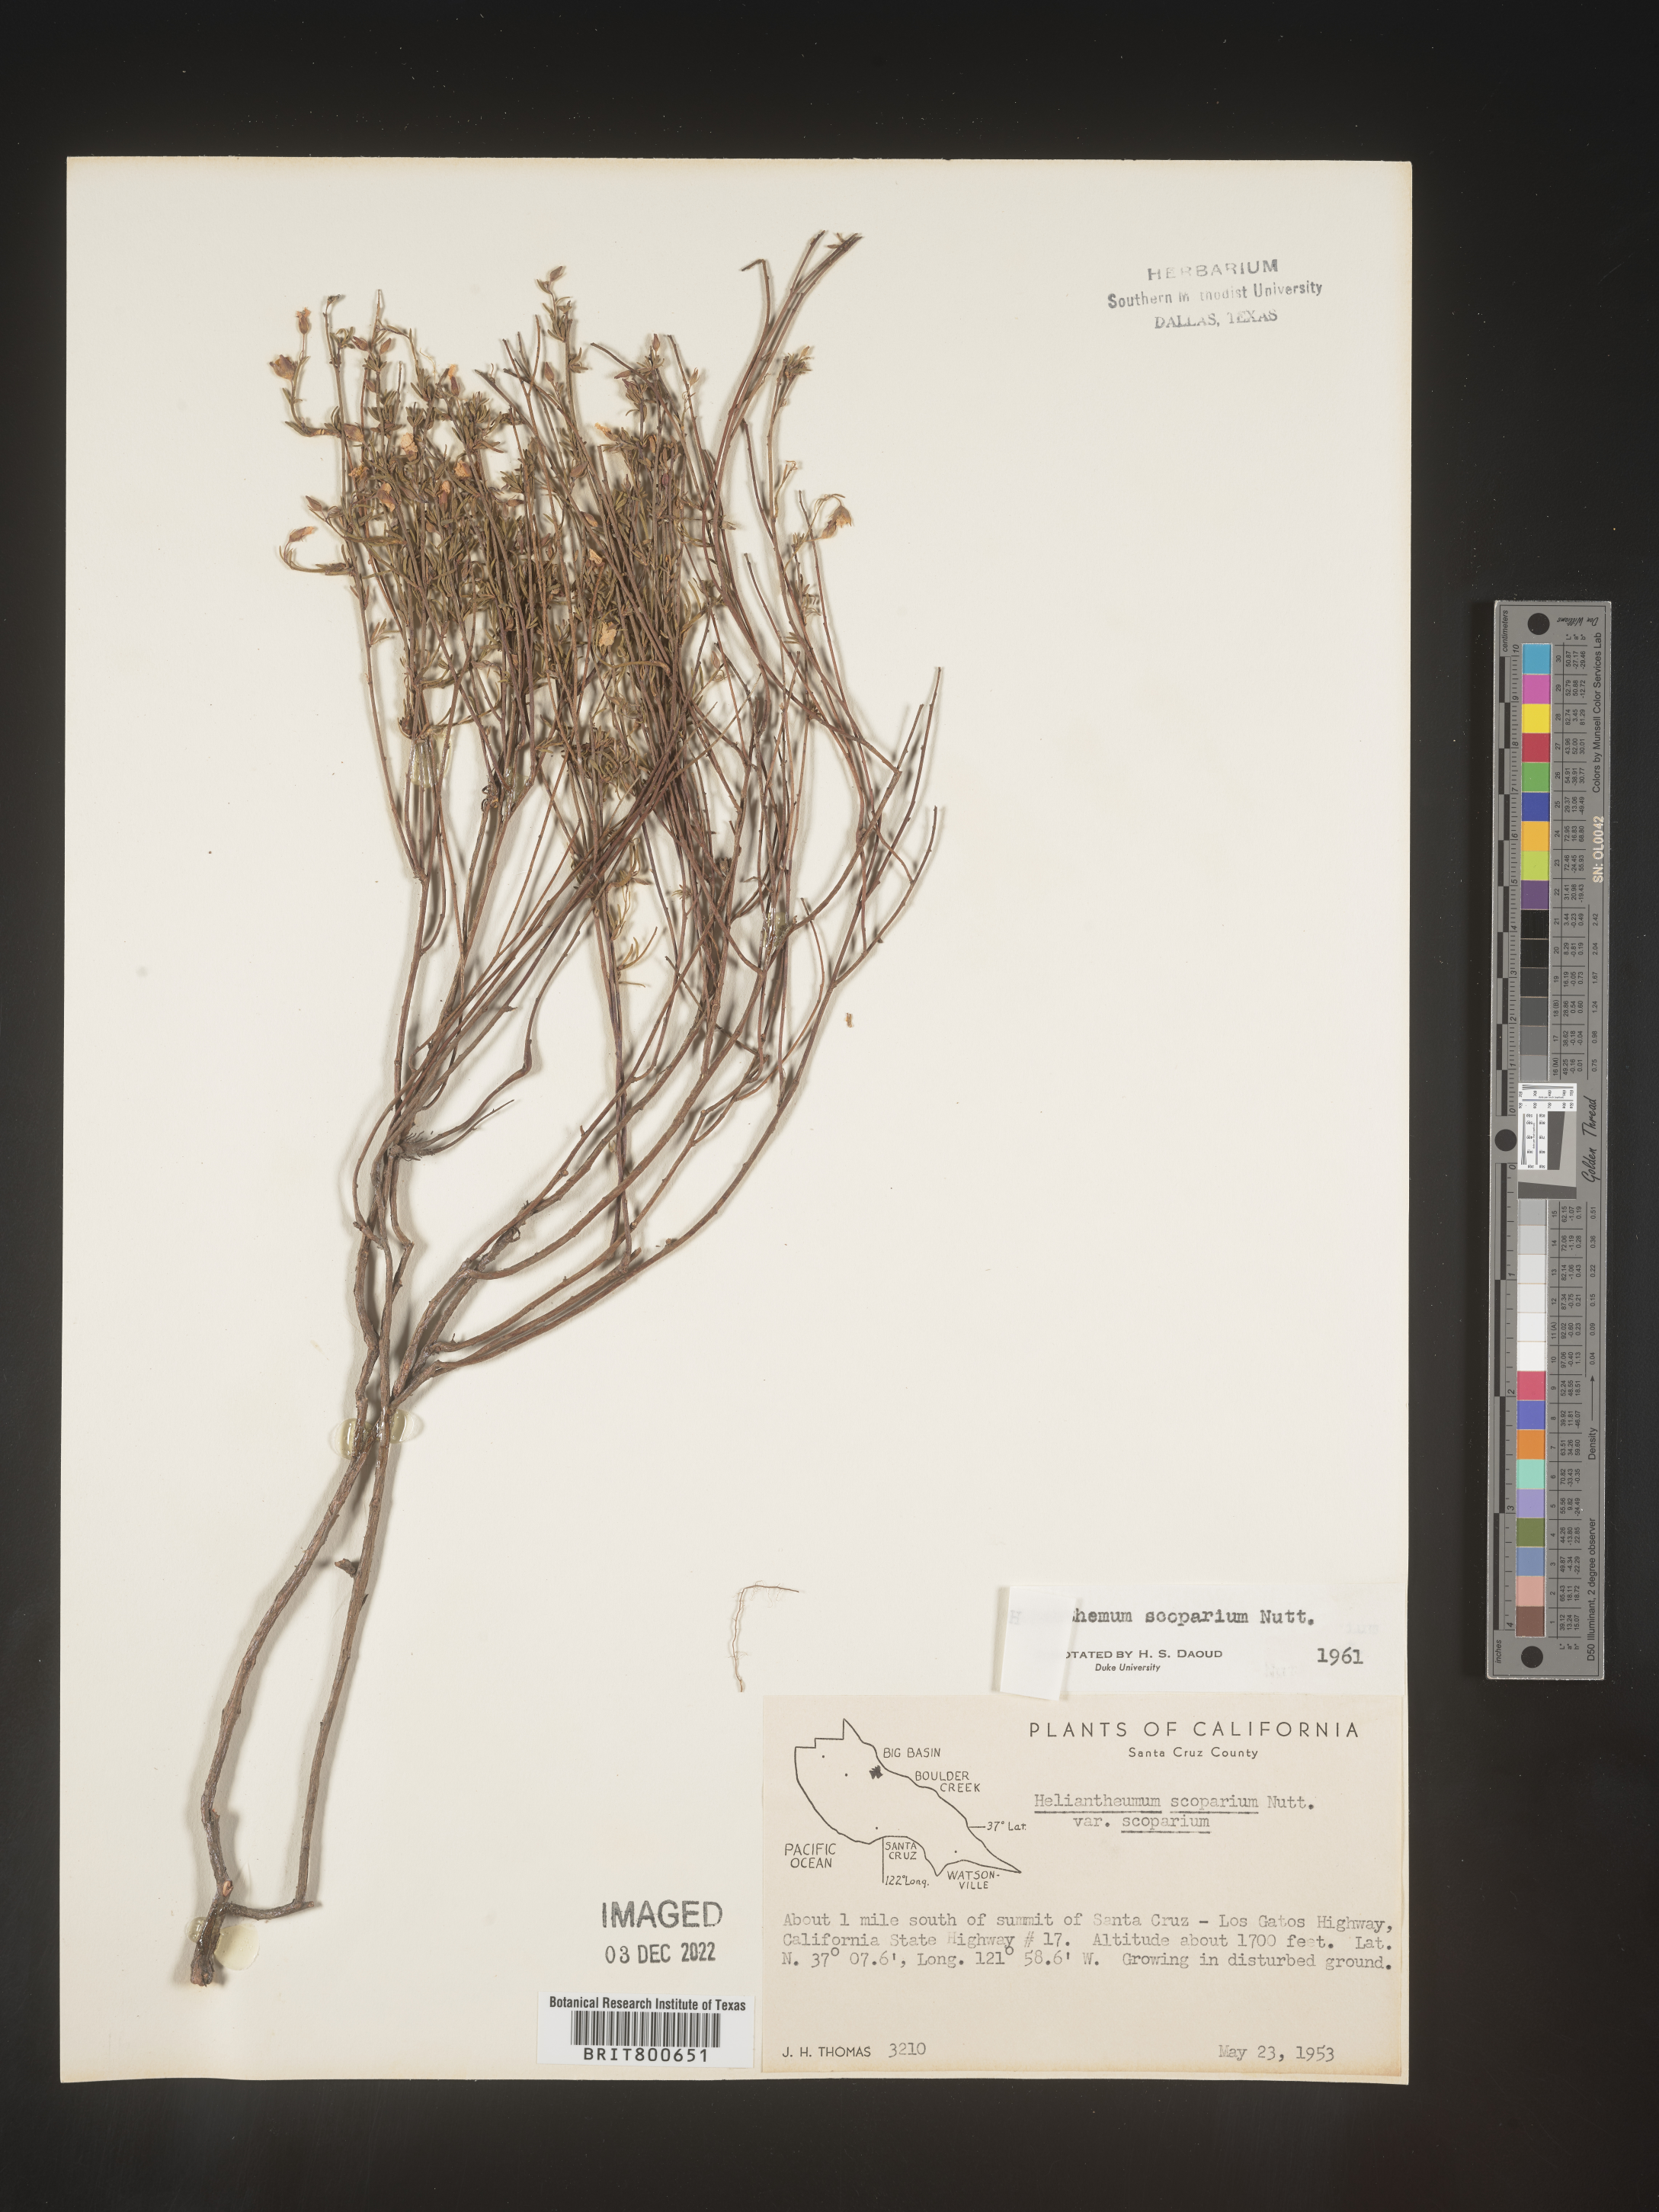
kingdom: Plantae
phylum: Tracheophyta
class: Magnoliopsida
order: Malvales
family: Cistaceae
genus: Helianthemum
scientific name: Helianthemum
